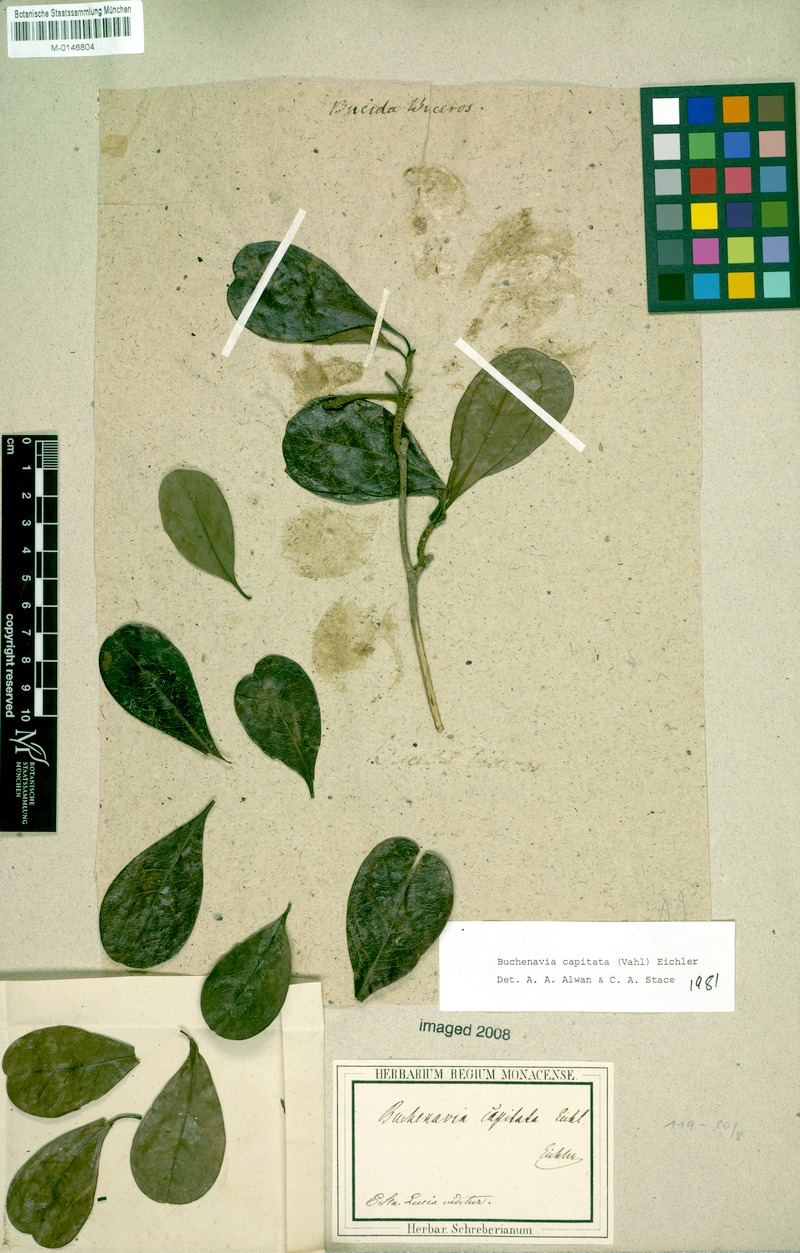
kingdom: Plantae
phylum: Tracheophyta
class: Magnoliopsida
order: Myrtales
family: Combretaceae
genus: Terminalia
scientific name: Terminalia tetraphylla
